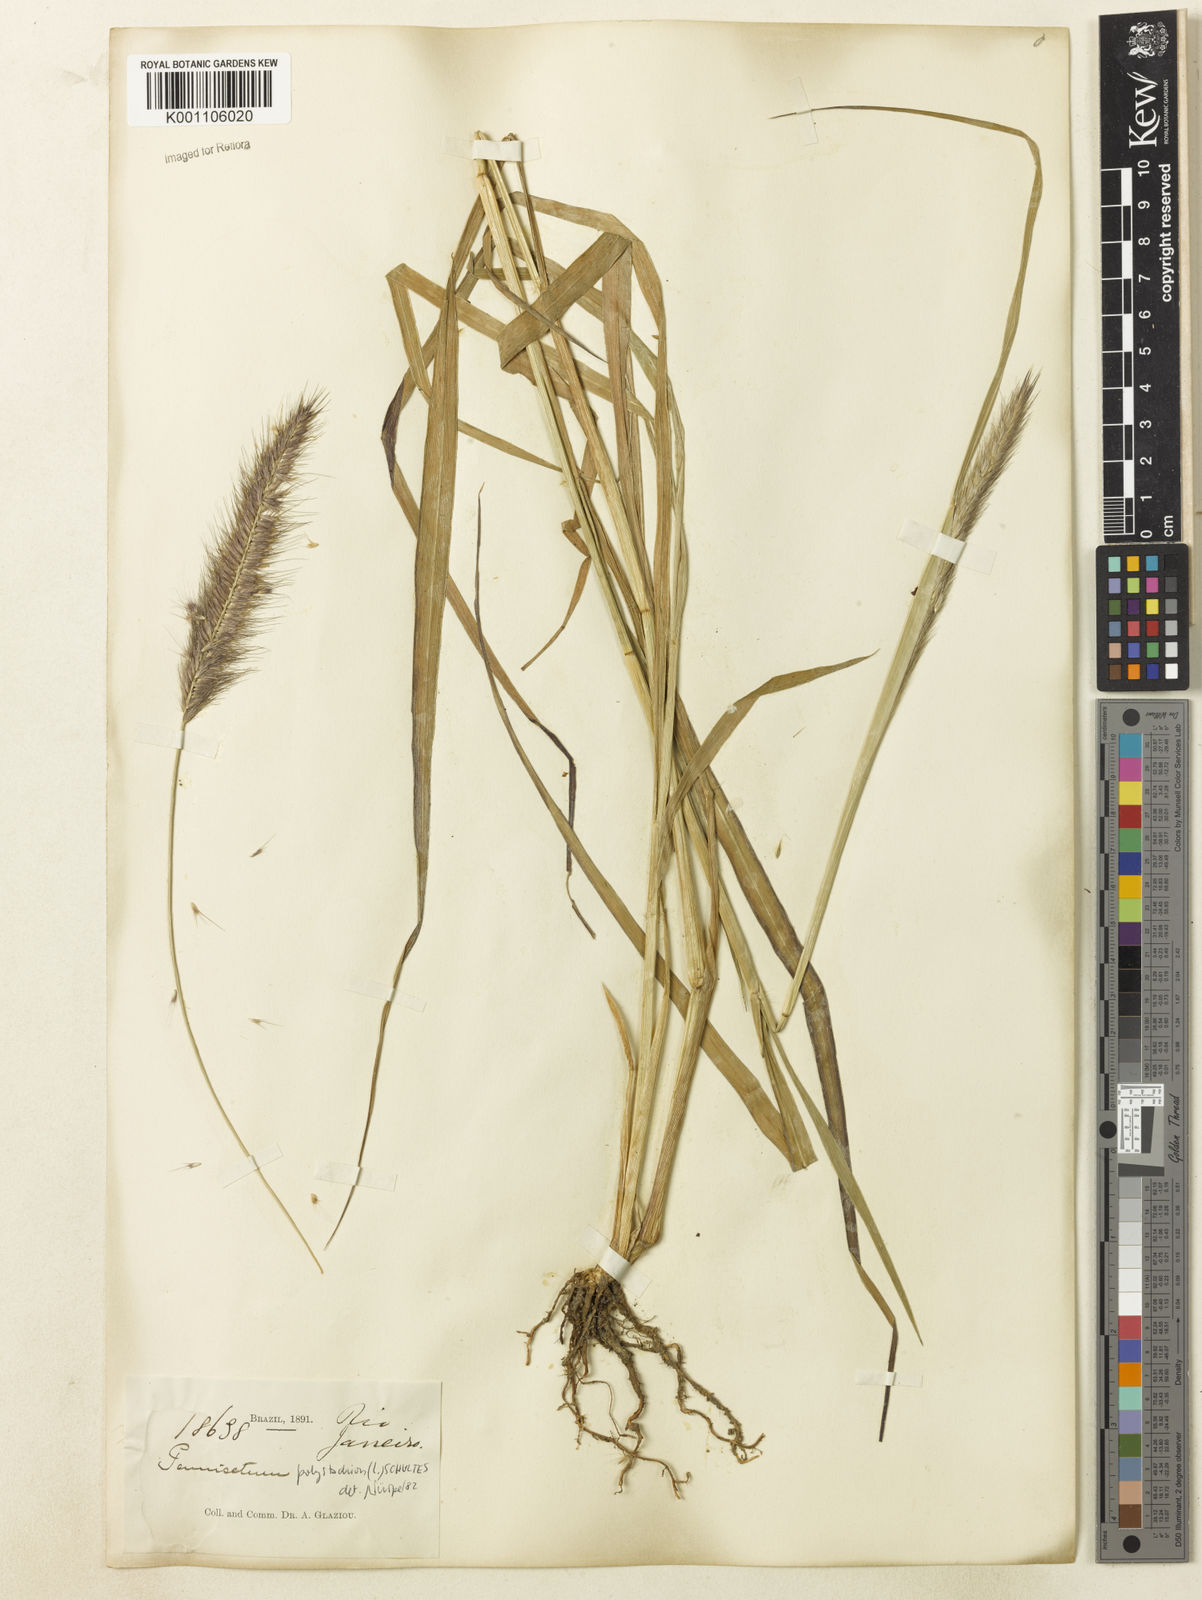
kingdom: Plantae
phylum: Tracheophyta
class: Liliopsida
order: Poales
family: Poaceae
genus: Setaria
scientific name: Setaria parviflora
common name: Knotroot bristle-grass
